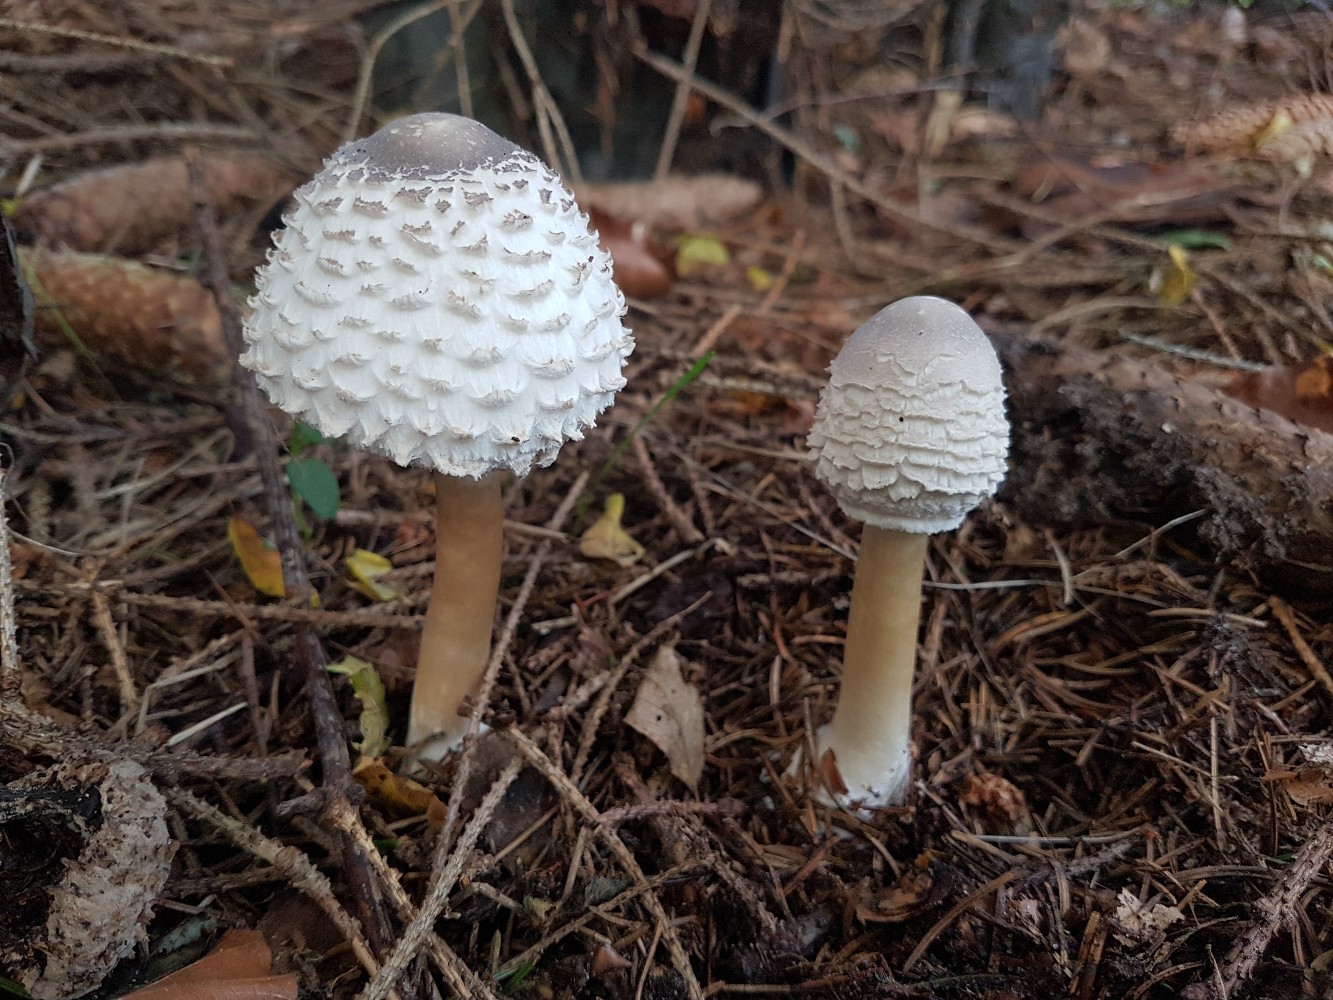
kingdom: Fungi
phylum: Basidiomycota
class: Agaricomycetes
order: Agaricales
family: Agaricaceae
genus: Leucoagaricus
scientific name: Leucoagaricus nympharum
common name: gran-silkehat
